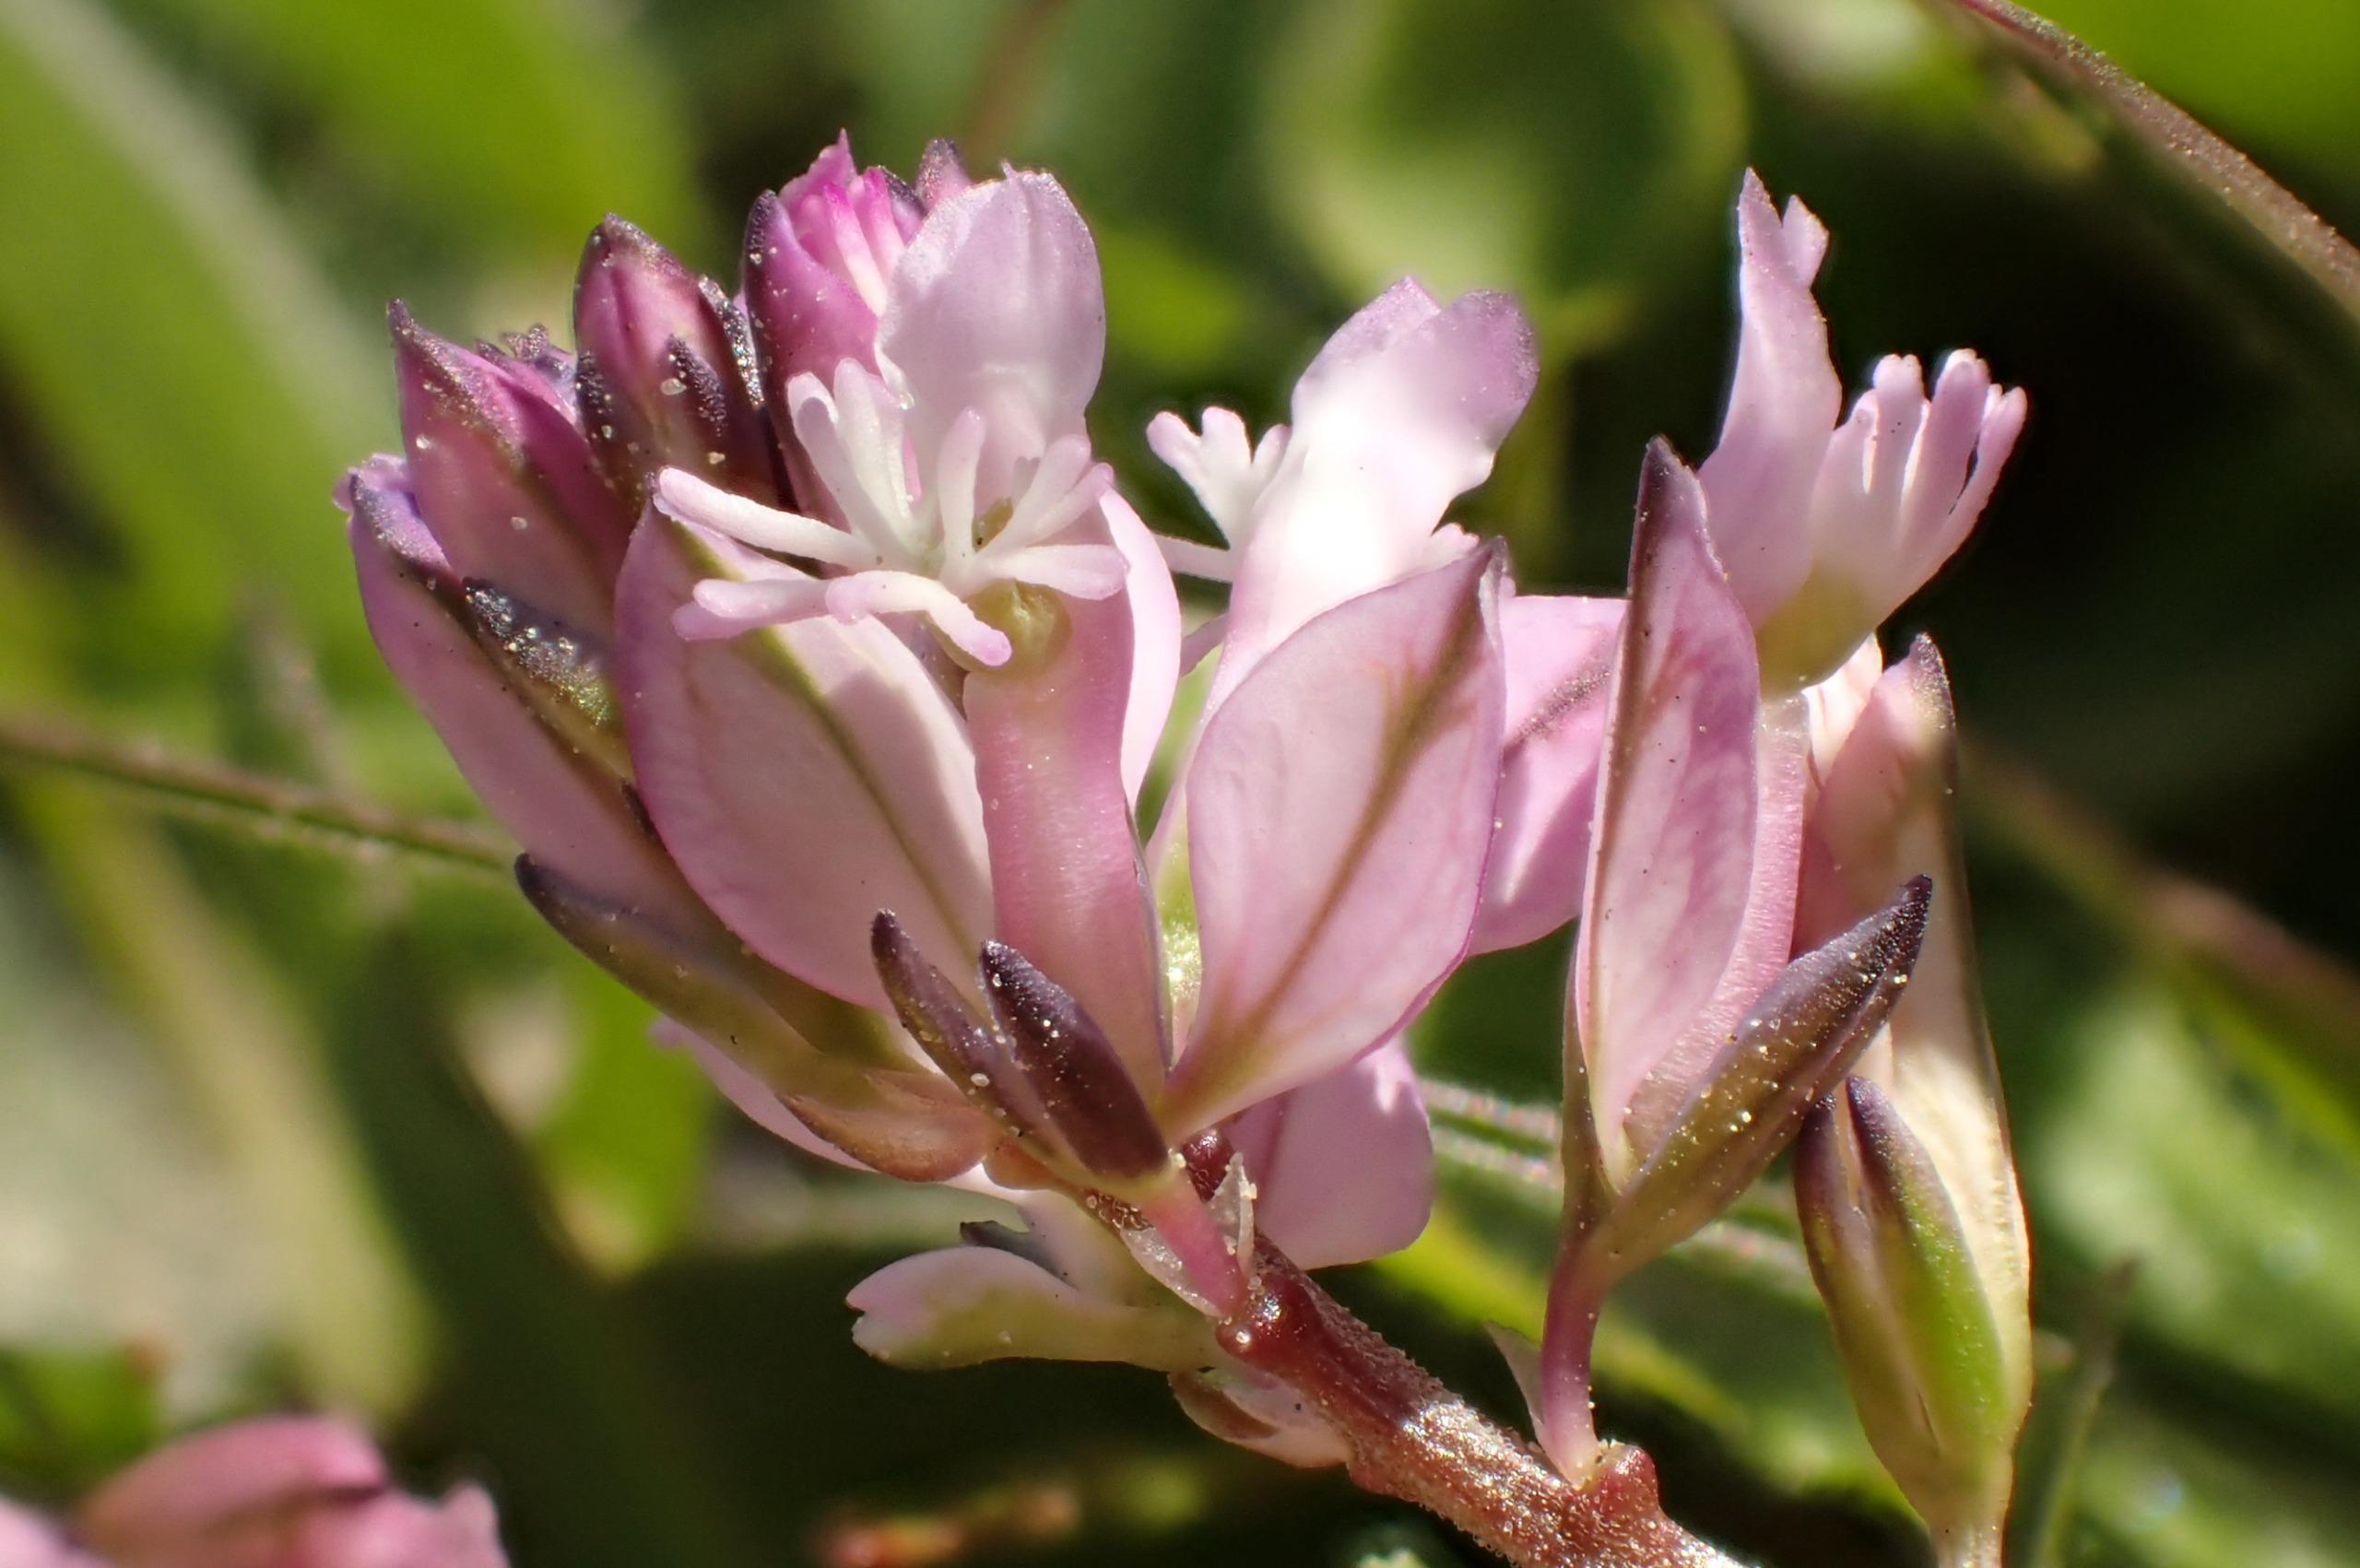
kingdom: Plantae
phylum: Tracheophyta
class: Magnoliopsida
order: Fabales
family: Polygalaceae
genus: Polygala
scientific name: Polygala vulgaris
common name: Almindelig mælkeurt
